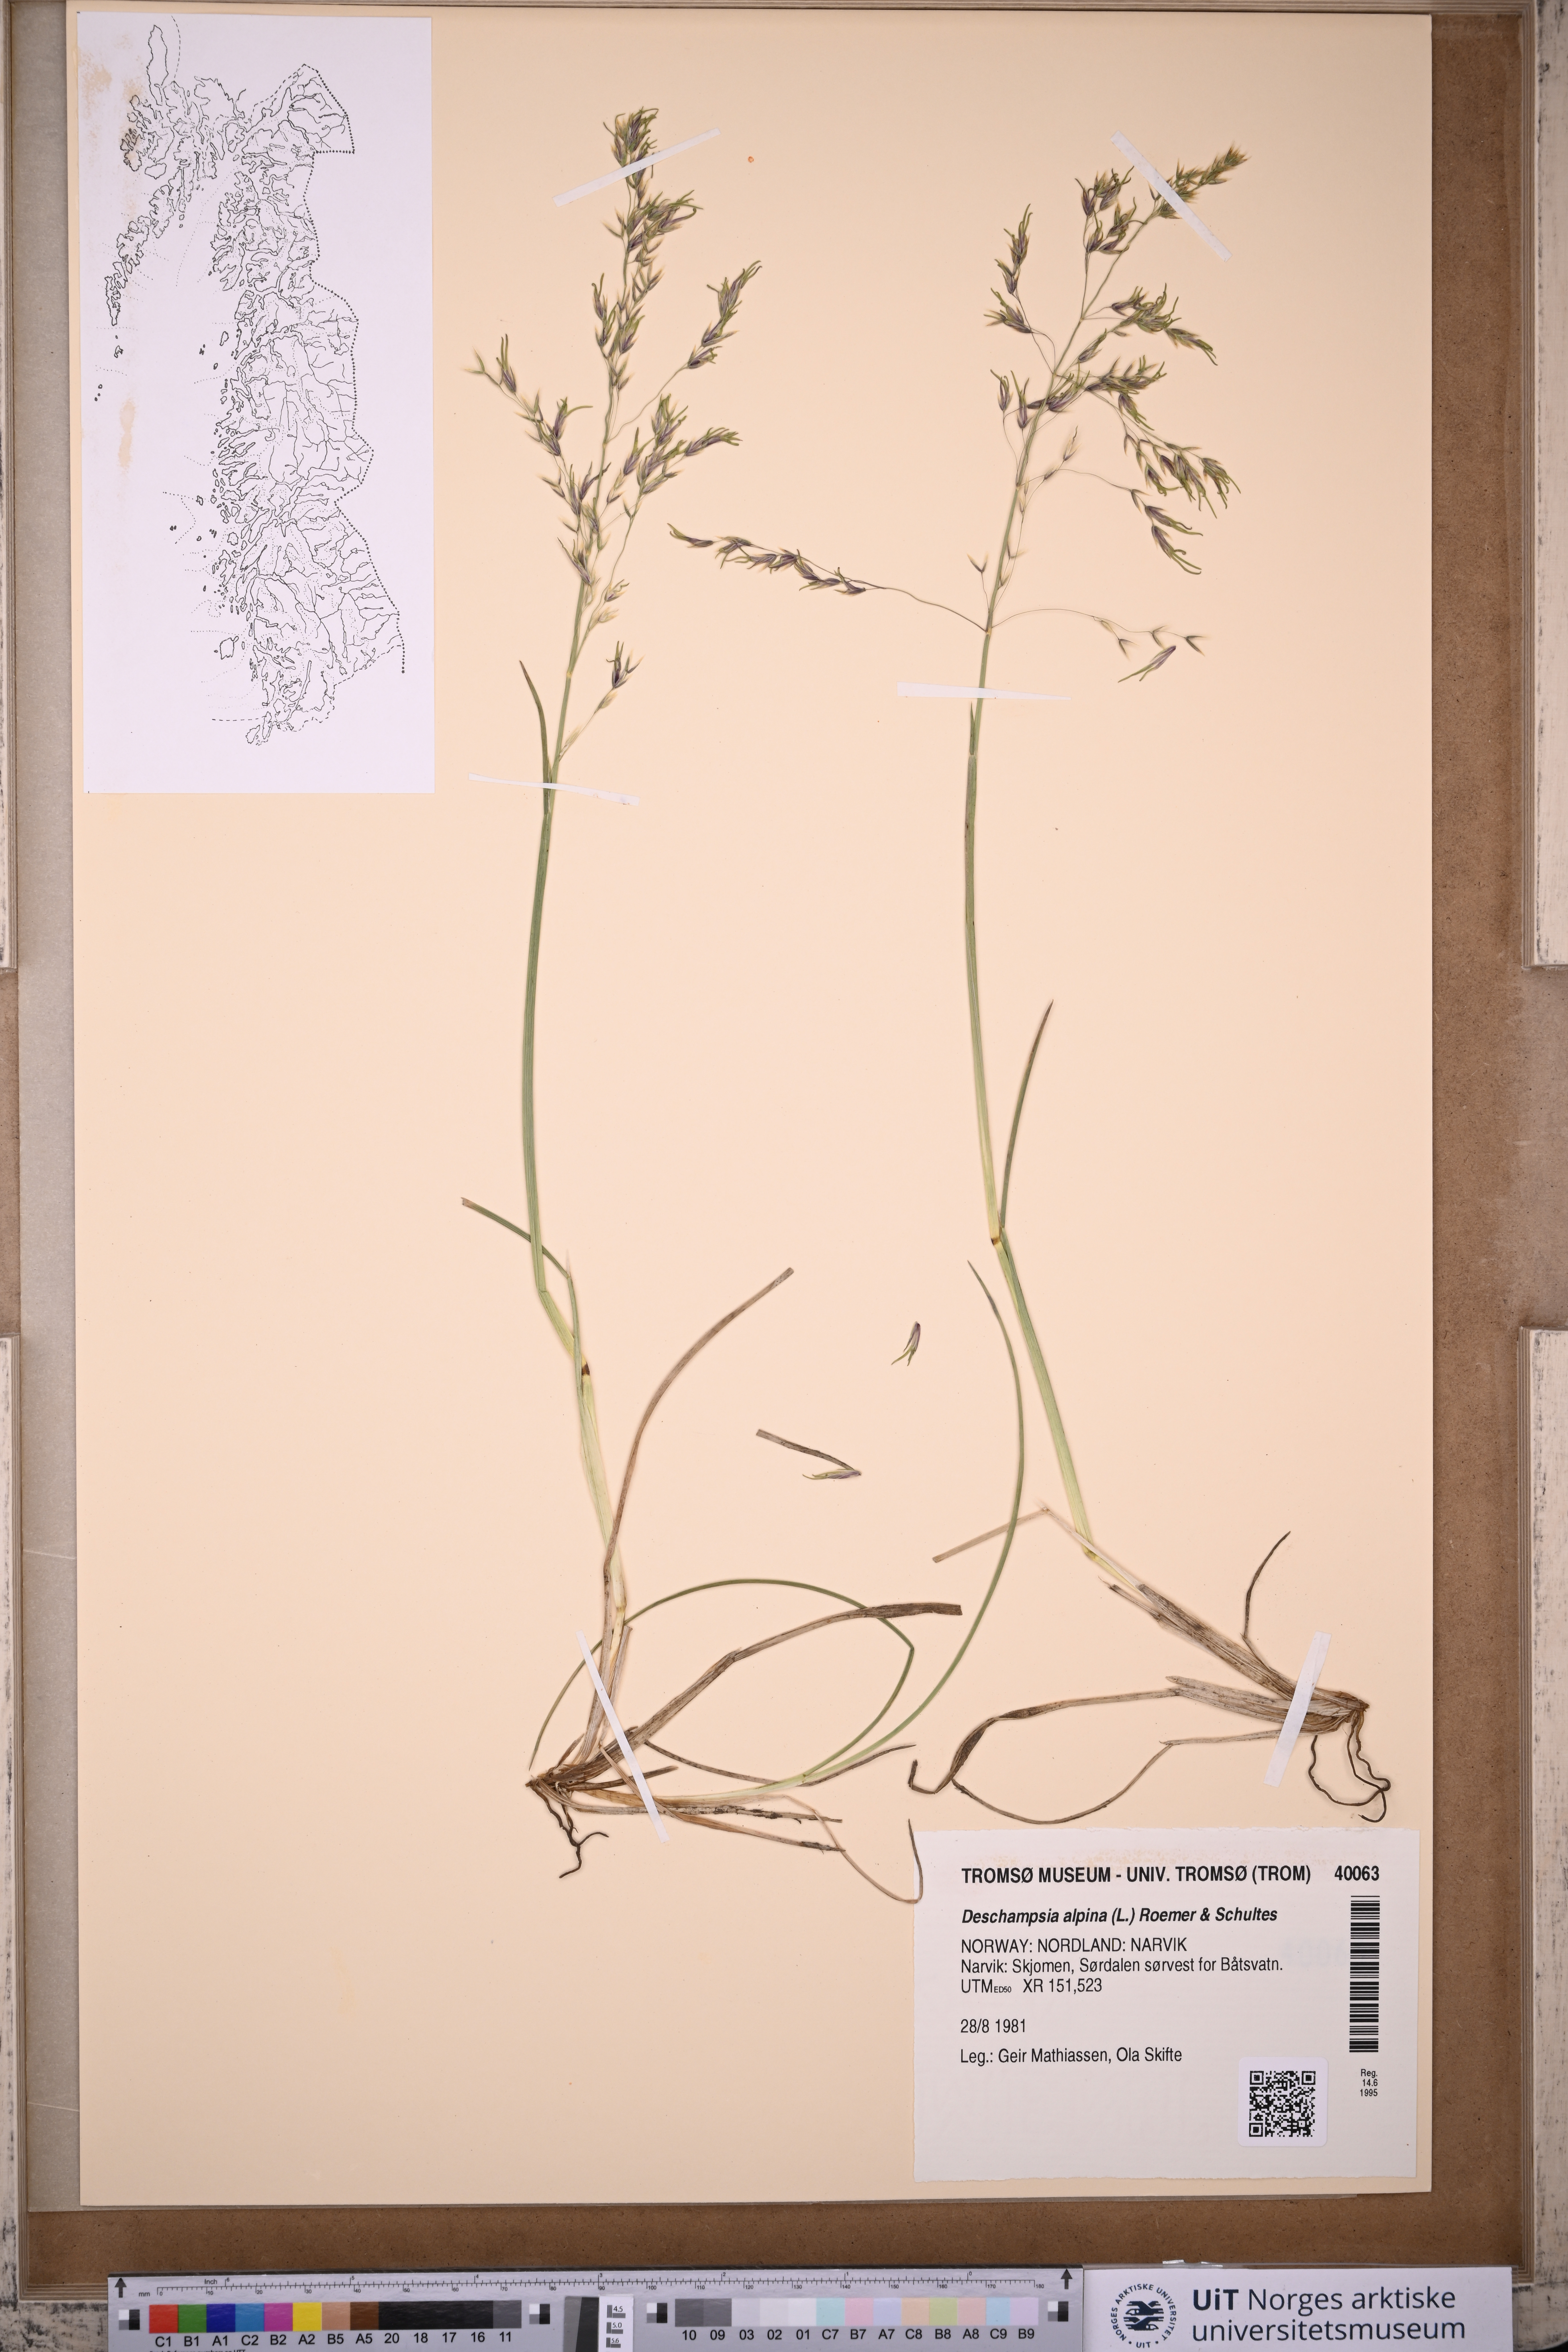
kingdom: Plantae
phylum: Tracheophyta
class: Liliopsida
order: Poales
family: Poaceae
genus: Deschampsia
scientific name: Deschampsia cespitosa
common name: Tufted hair-grass
